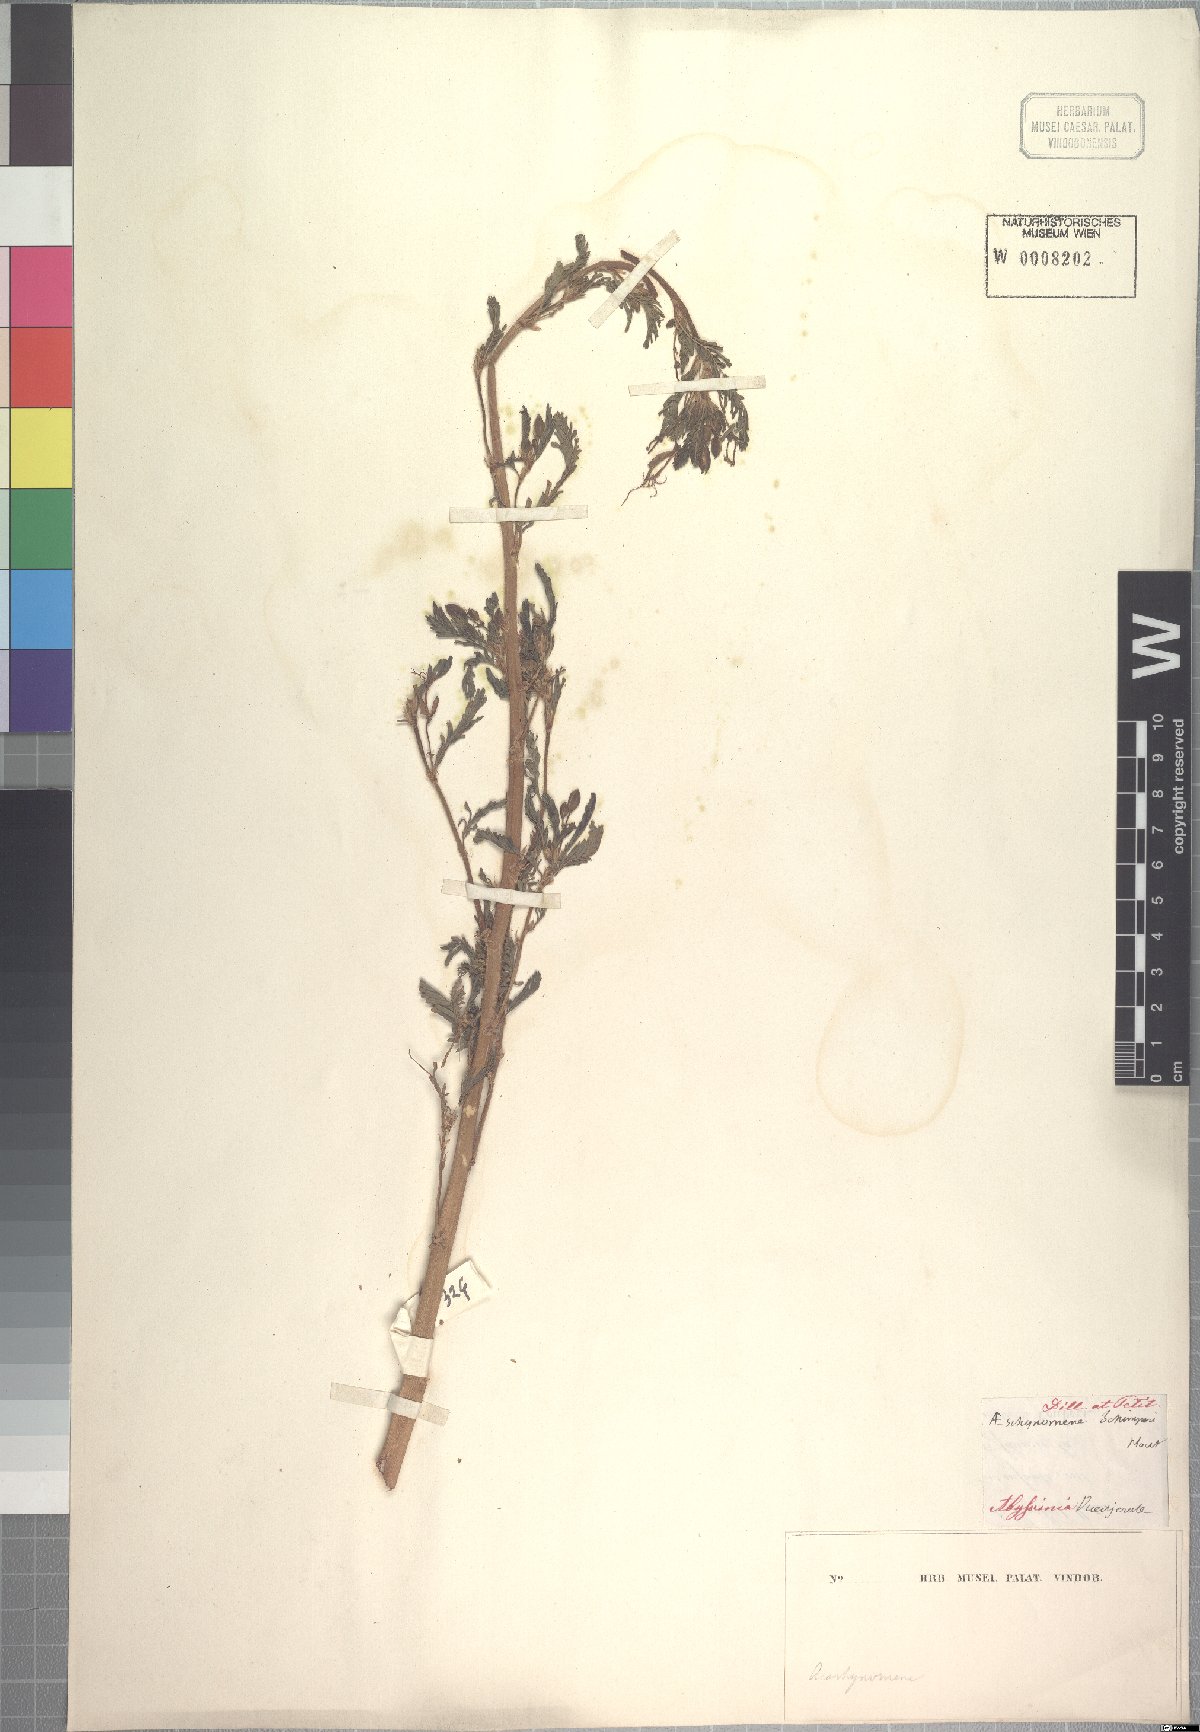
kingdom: Plantae
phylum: Tracheophyta
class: Magnoliopsida
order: Fabales
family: Fabaceae
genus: Aeschynomene
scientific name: Aeschynomene schimperi
